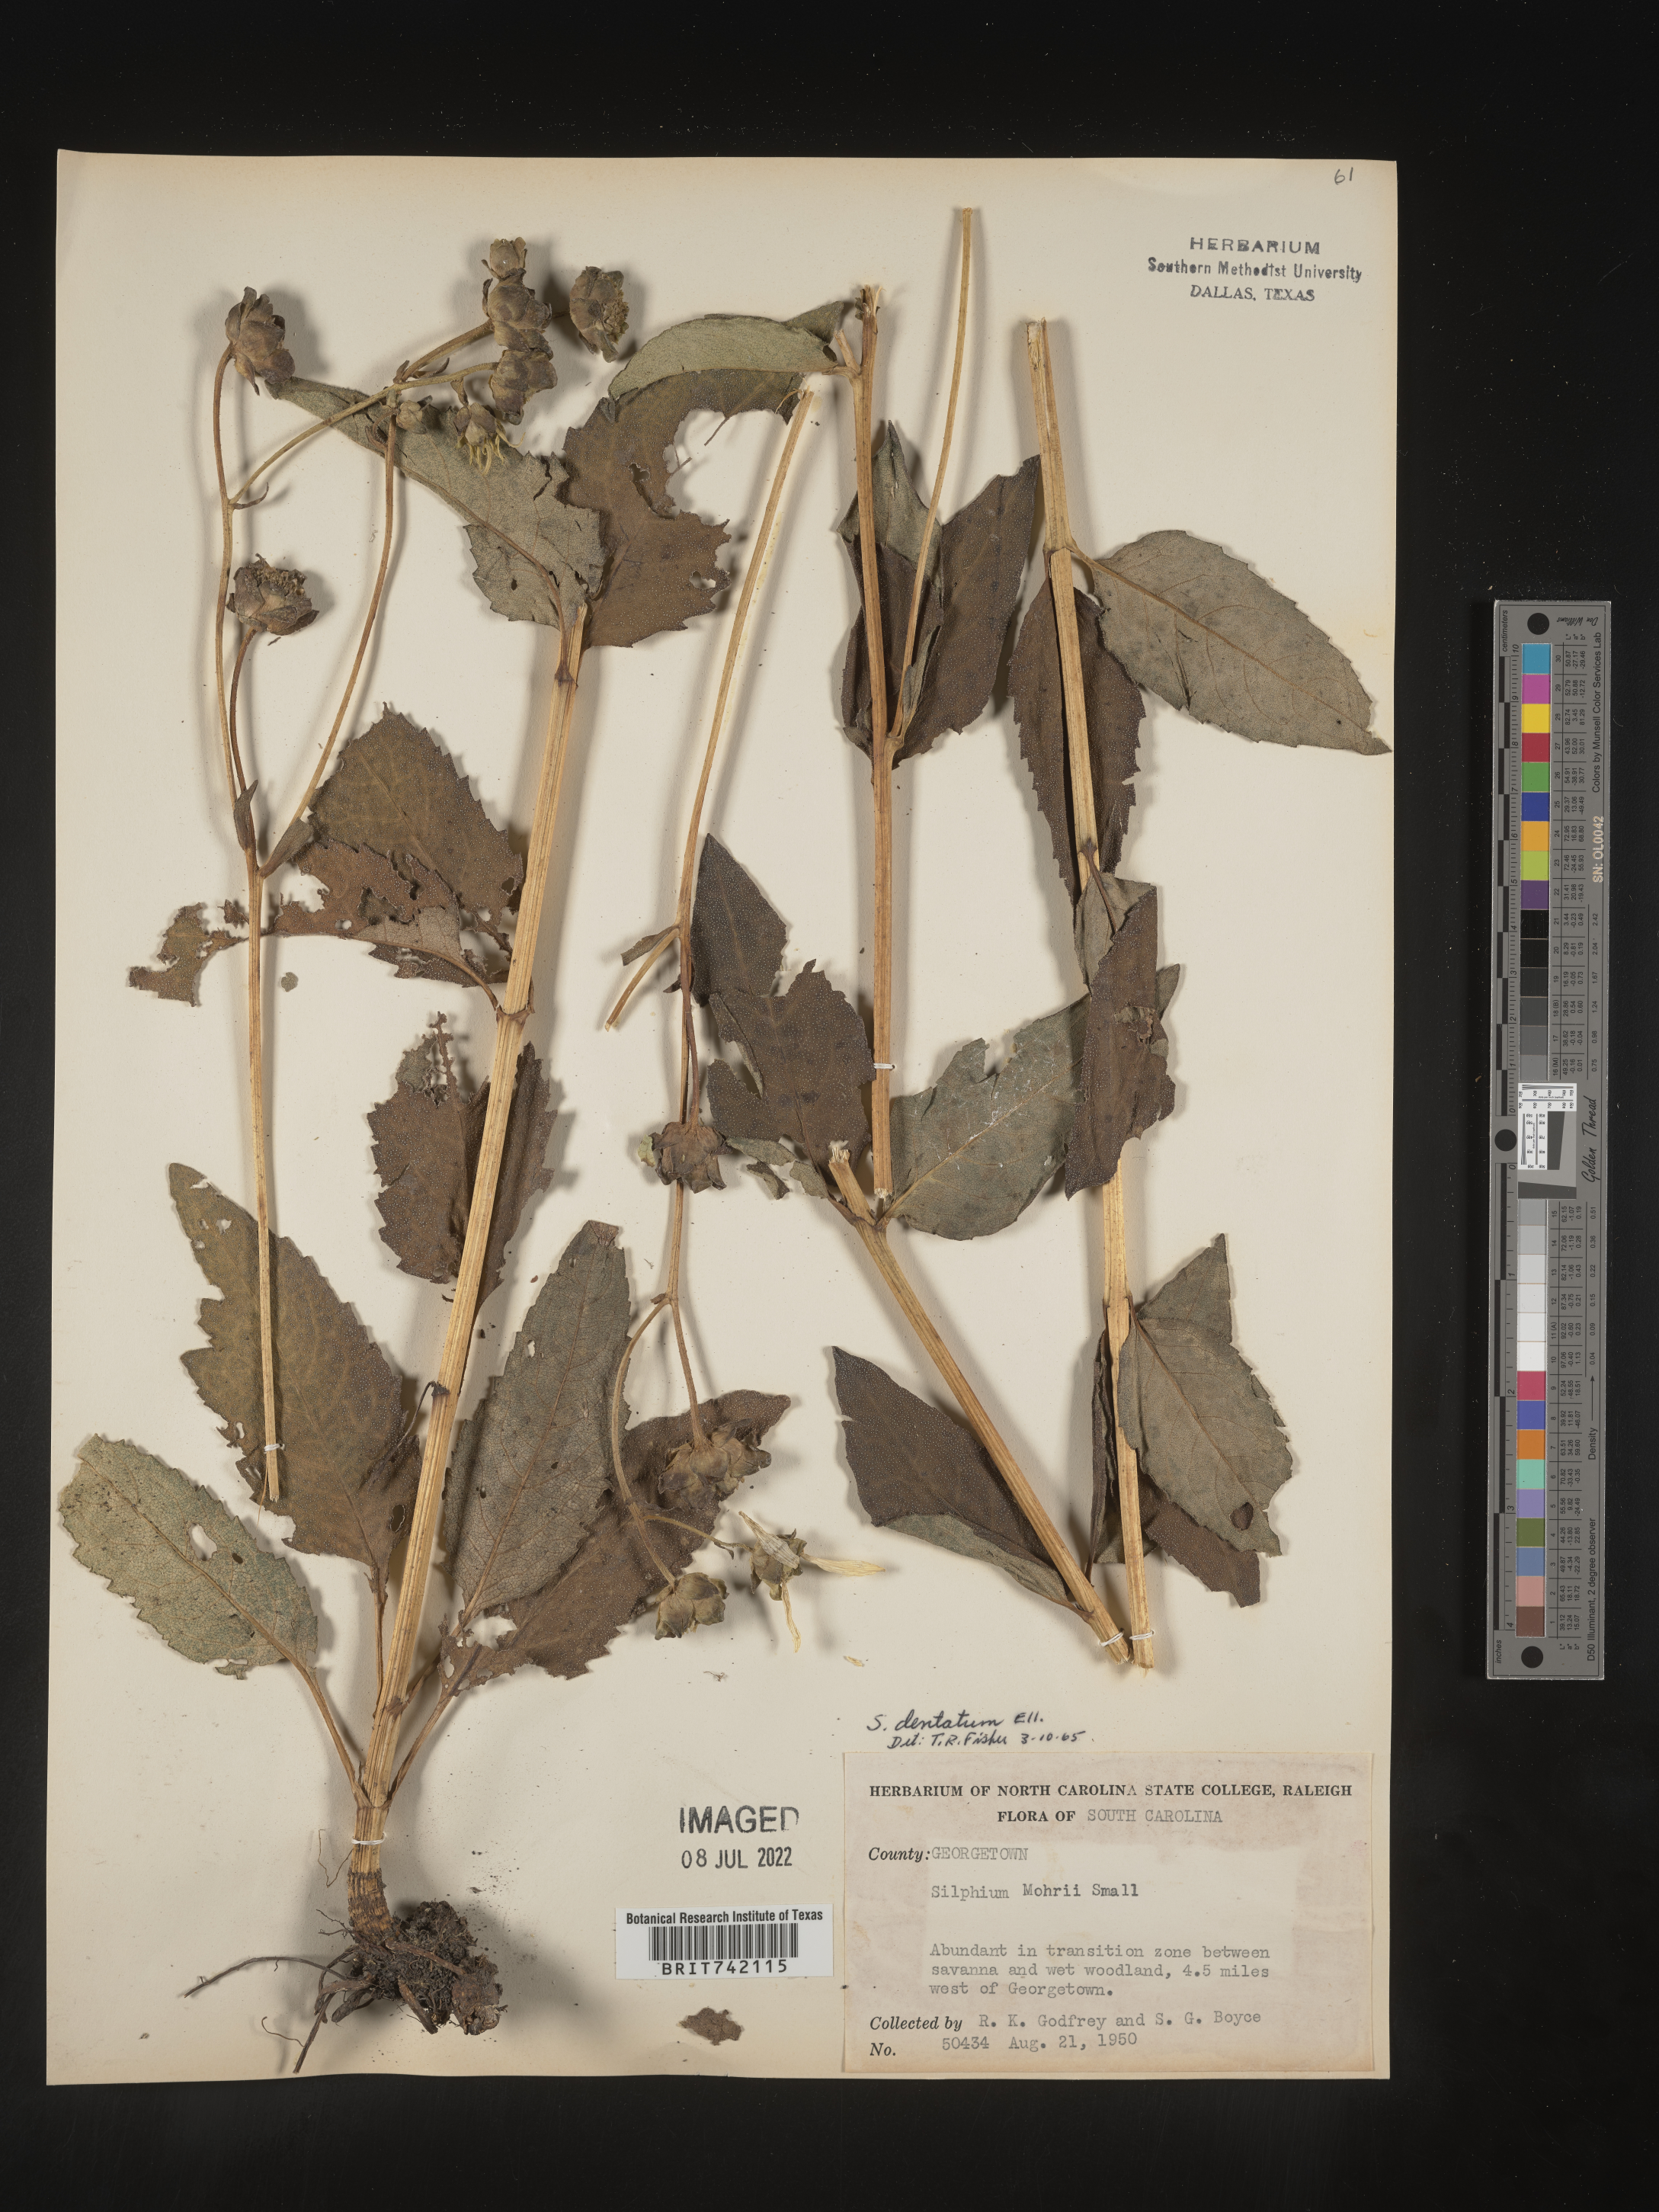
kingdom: Plantae
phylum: Tracheophyta
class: Magnoliopsida
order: Asterales
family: Asteraceae
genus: Silphium
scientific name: Silphium glabrum
